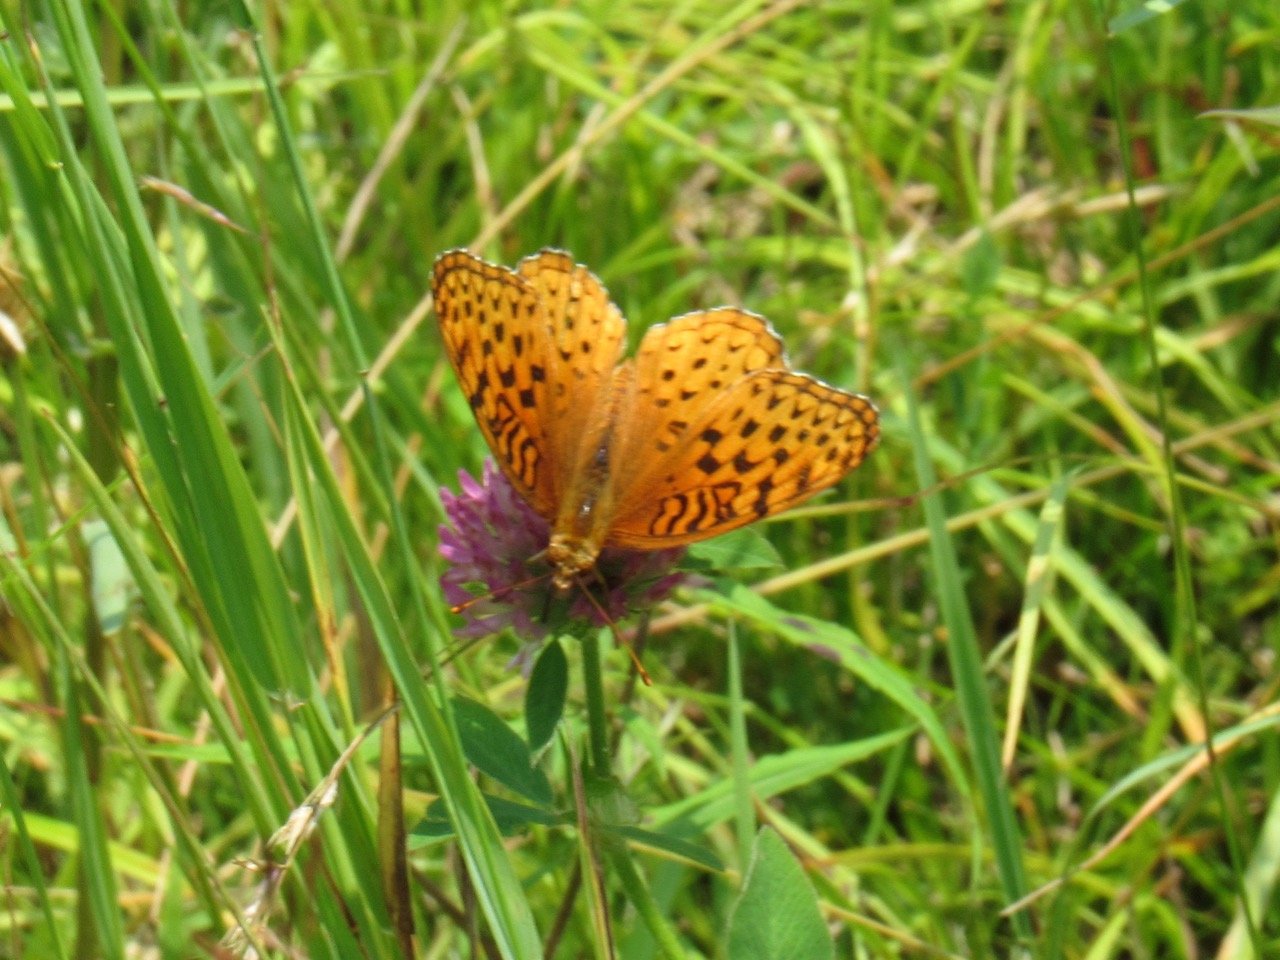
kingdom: Animalia
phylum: Arthropoda
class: Insecta
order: Lepidoptera
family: Nymphalidae
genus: Speyeria
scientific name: Speyeria aphrodite
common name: Aphrodite Fritillary
